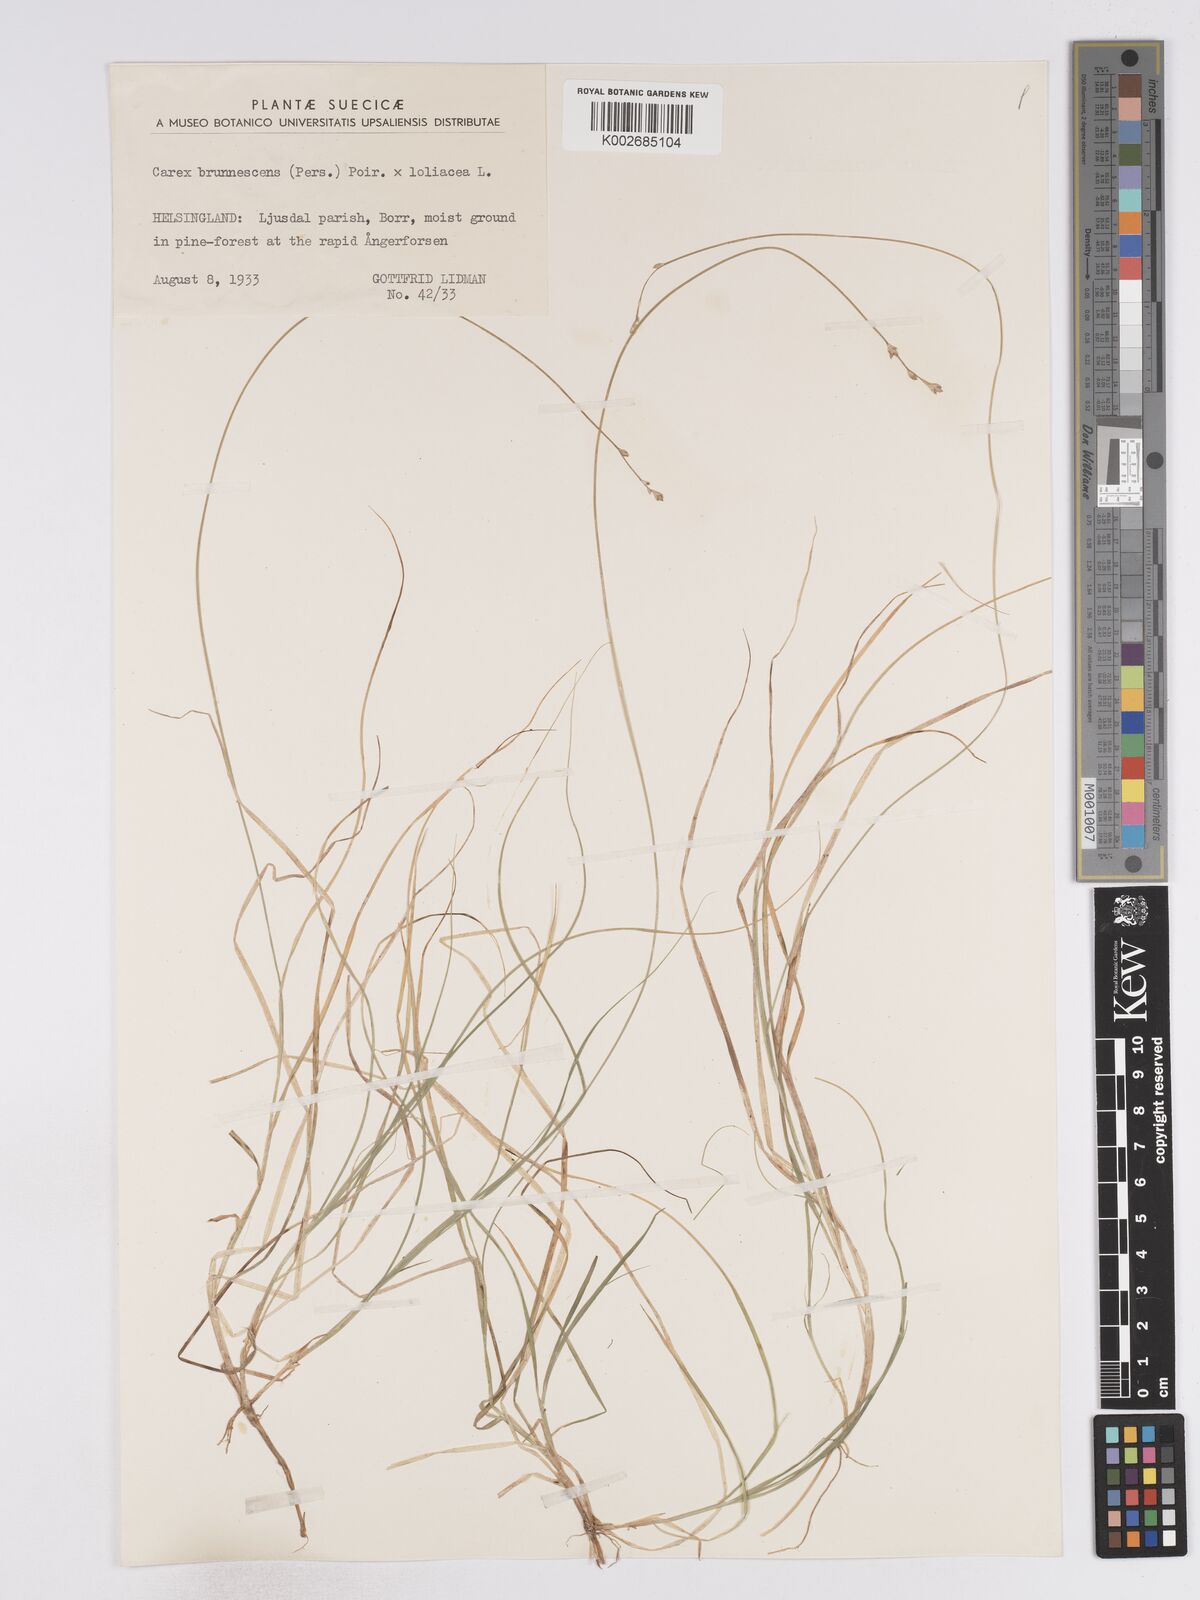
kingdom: Plantae
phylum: Tracheophyta
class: Liliopsida
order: Poales
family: Cyperaceae
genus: Carex
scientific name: Carex brunnescens
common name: Brown sedge
